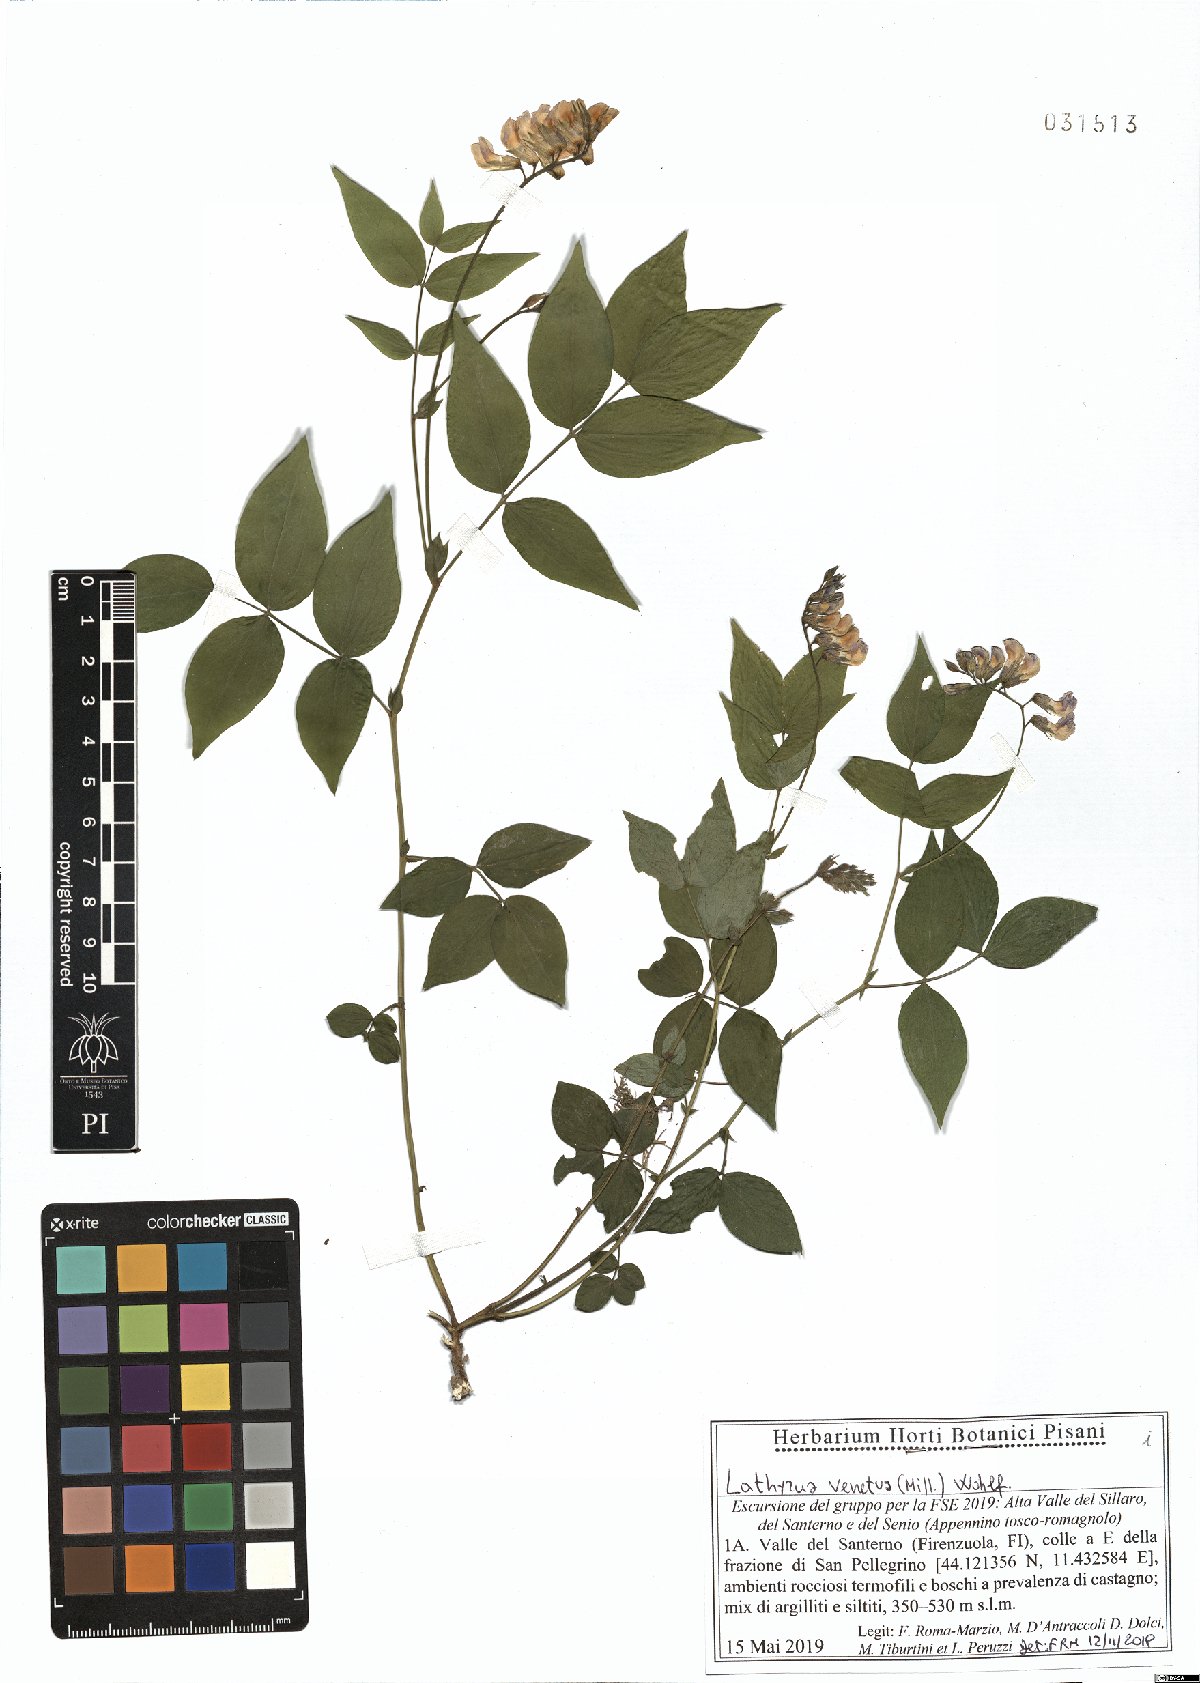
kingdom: Plantae
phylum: Tracheophyta
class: Magnoliopsida
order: Fabales
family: Fabaceae
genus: Lathyrus
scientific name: Lathyrus venetus
